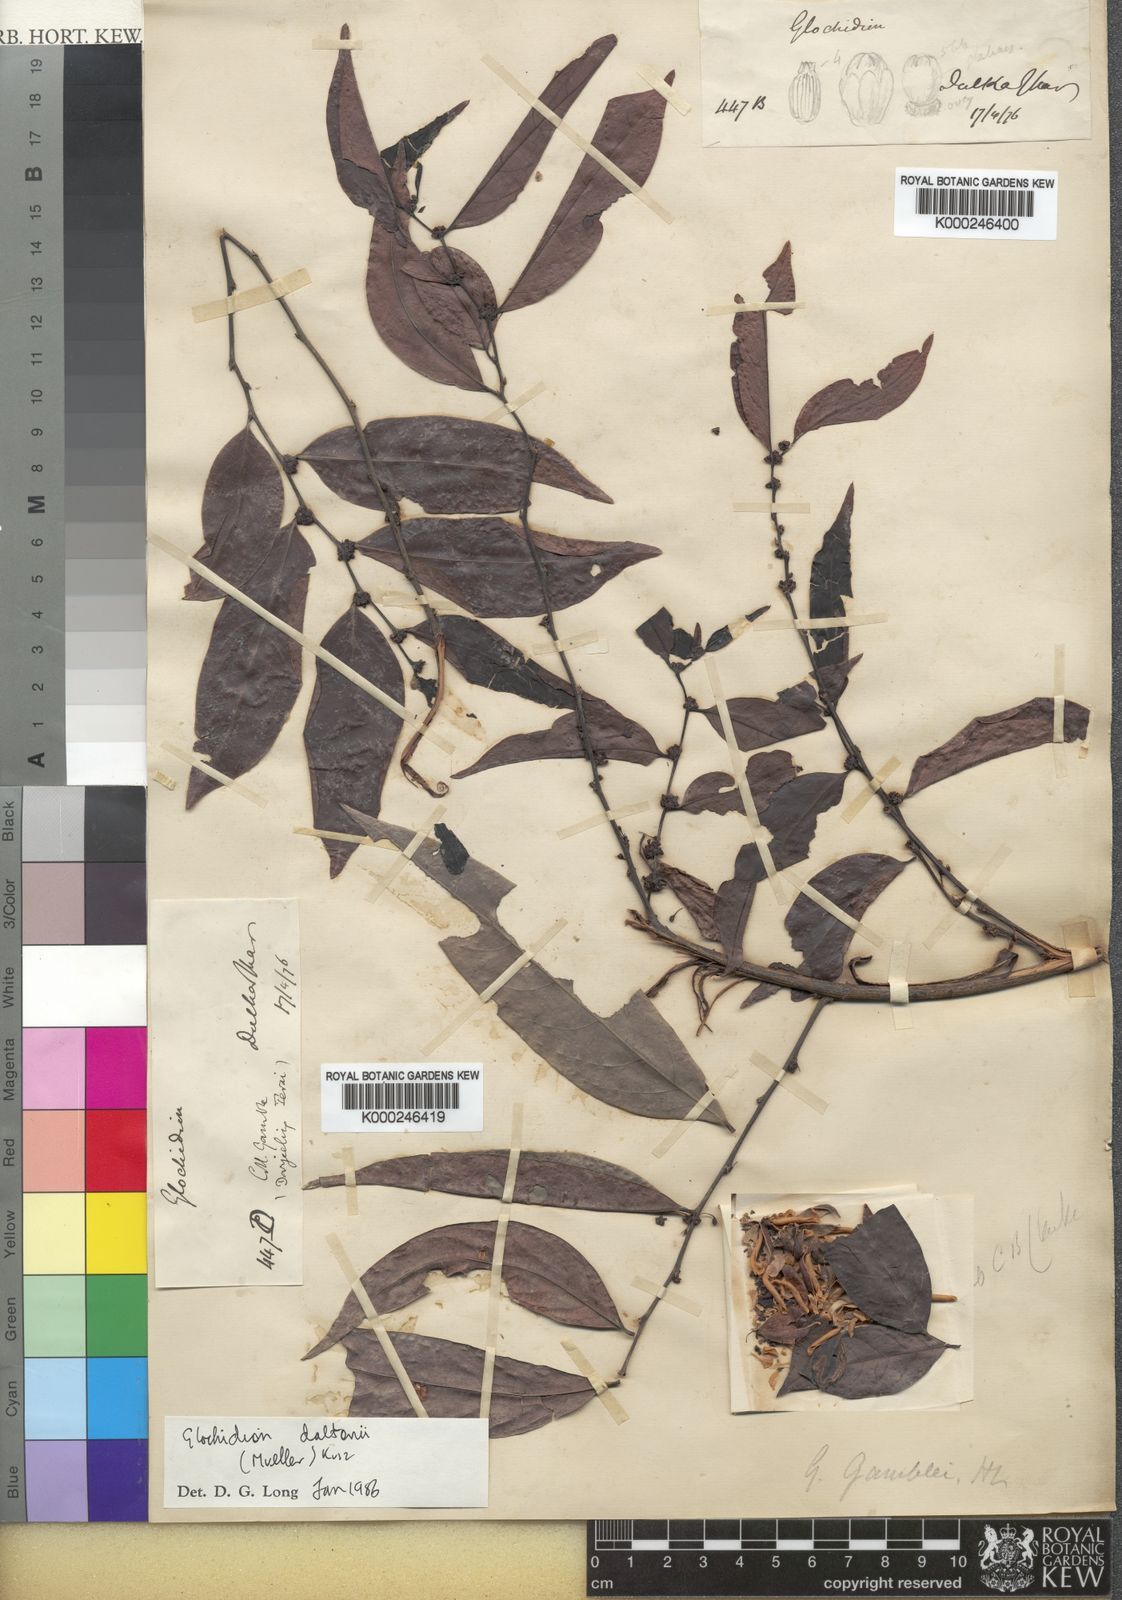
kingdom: Plantae
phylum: Tracheophyta
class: Magnoliopsida
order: Malpighiales
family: Phyllanthaceae
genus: Glochidion
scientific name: Glochidion daltonii
